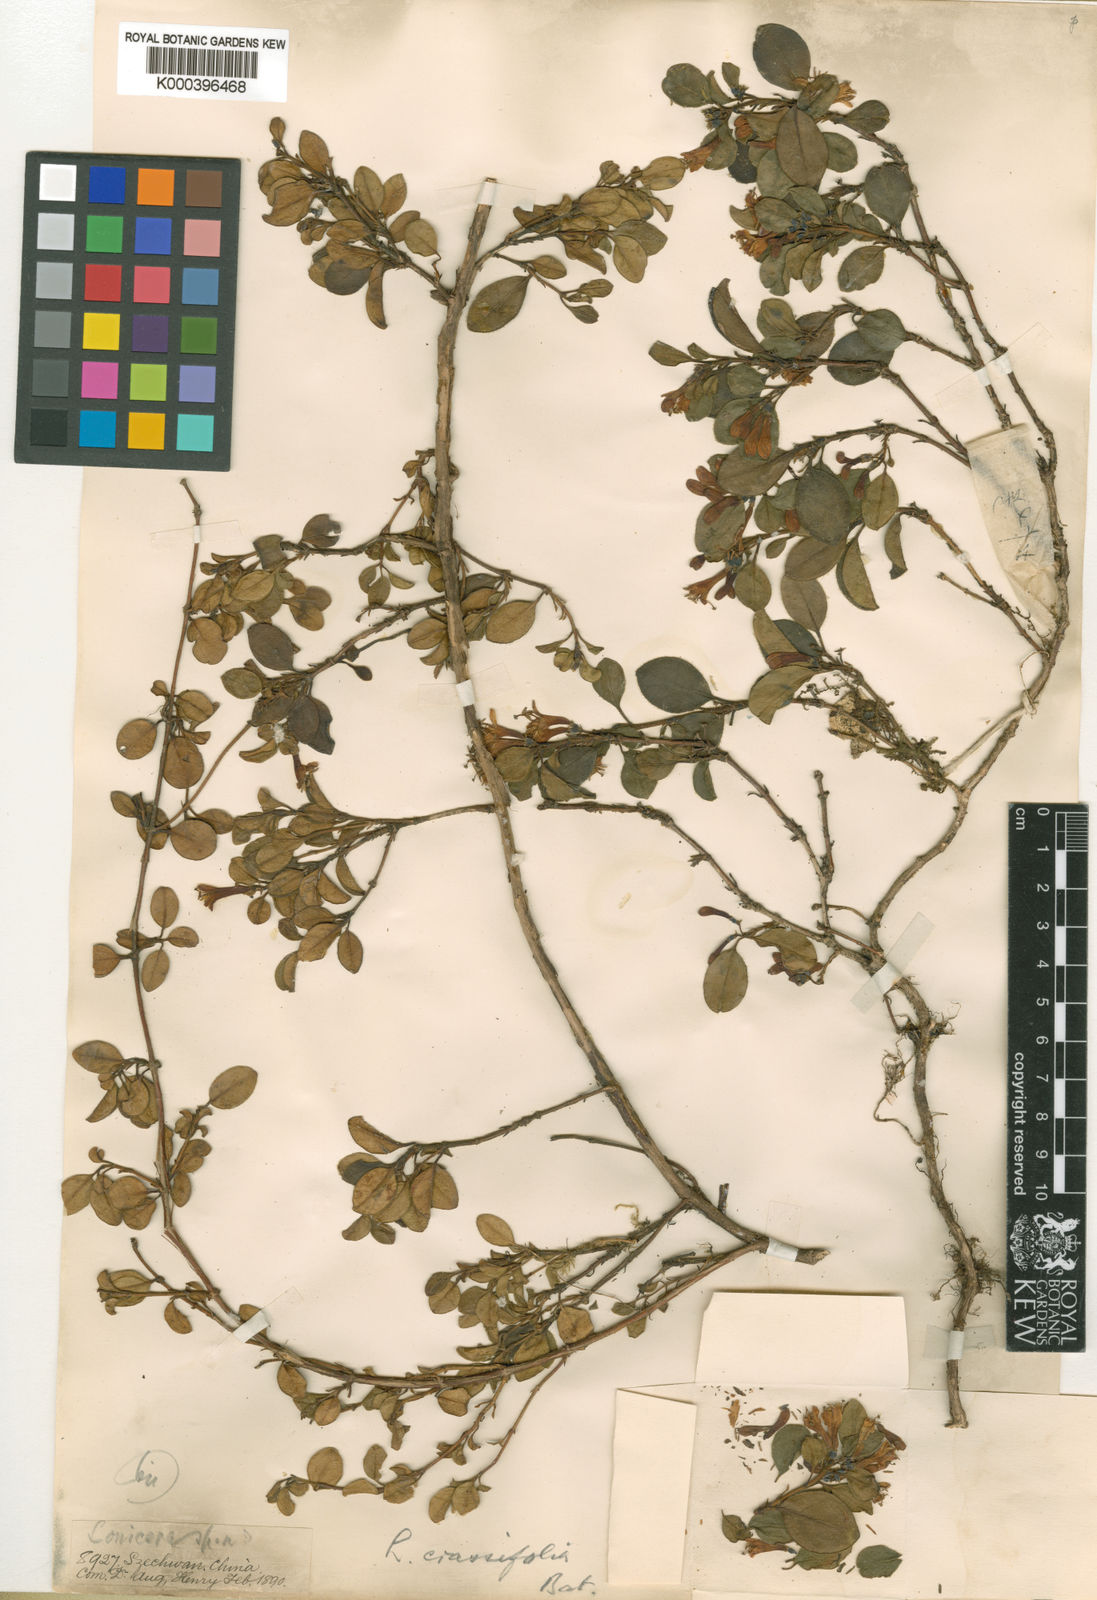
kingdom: Plantae
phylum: Tracheophyta
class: Magnoliopsida
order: Dipsacales
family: Caprifoliaceae
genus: Lonicera
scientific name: Lonicera crassifolia
